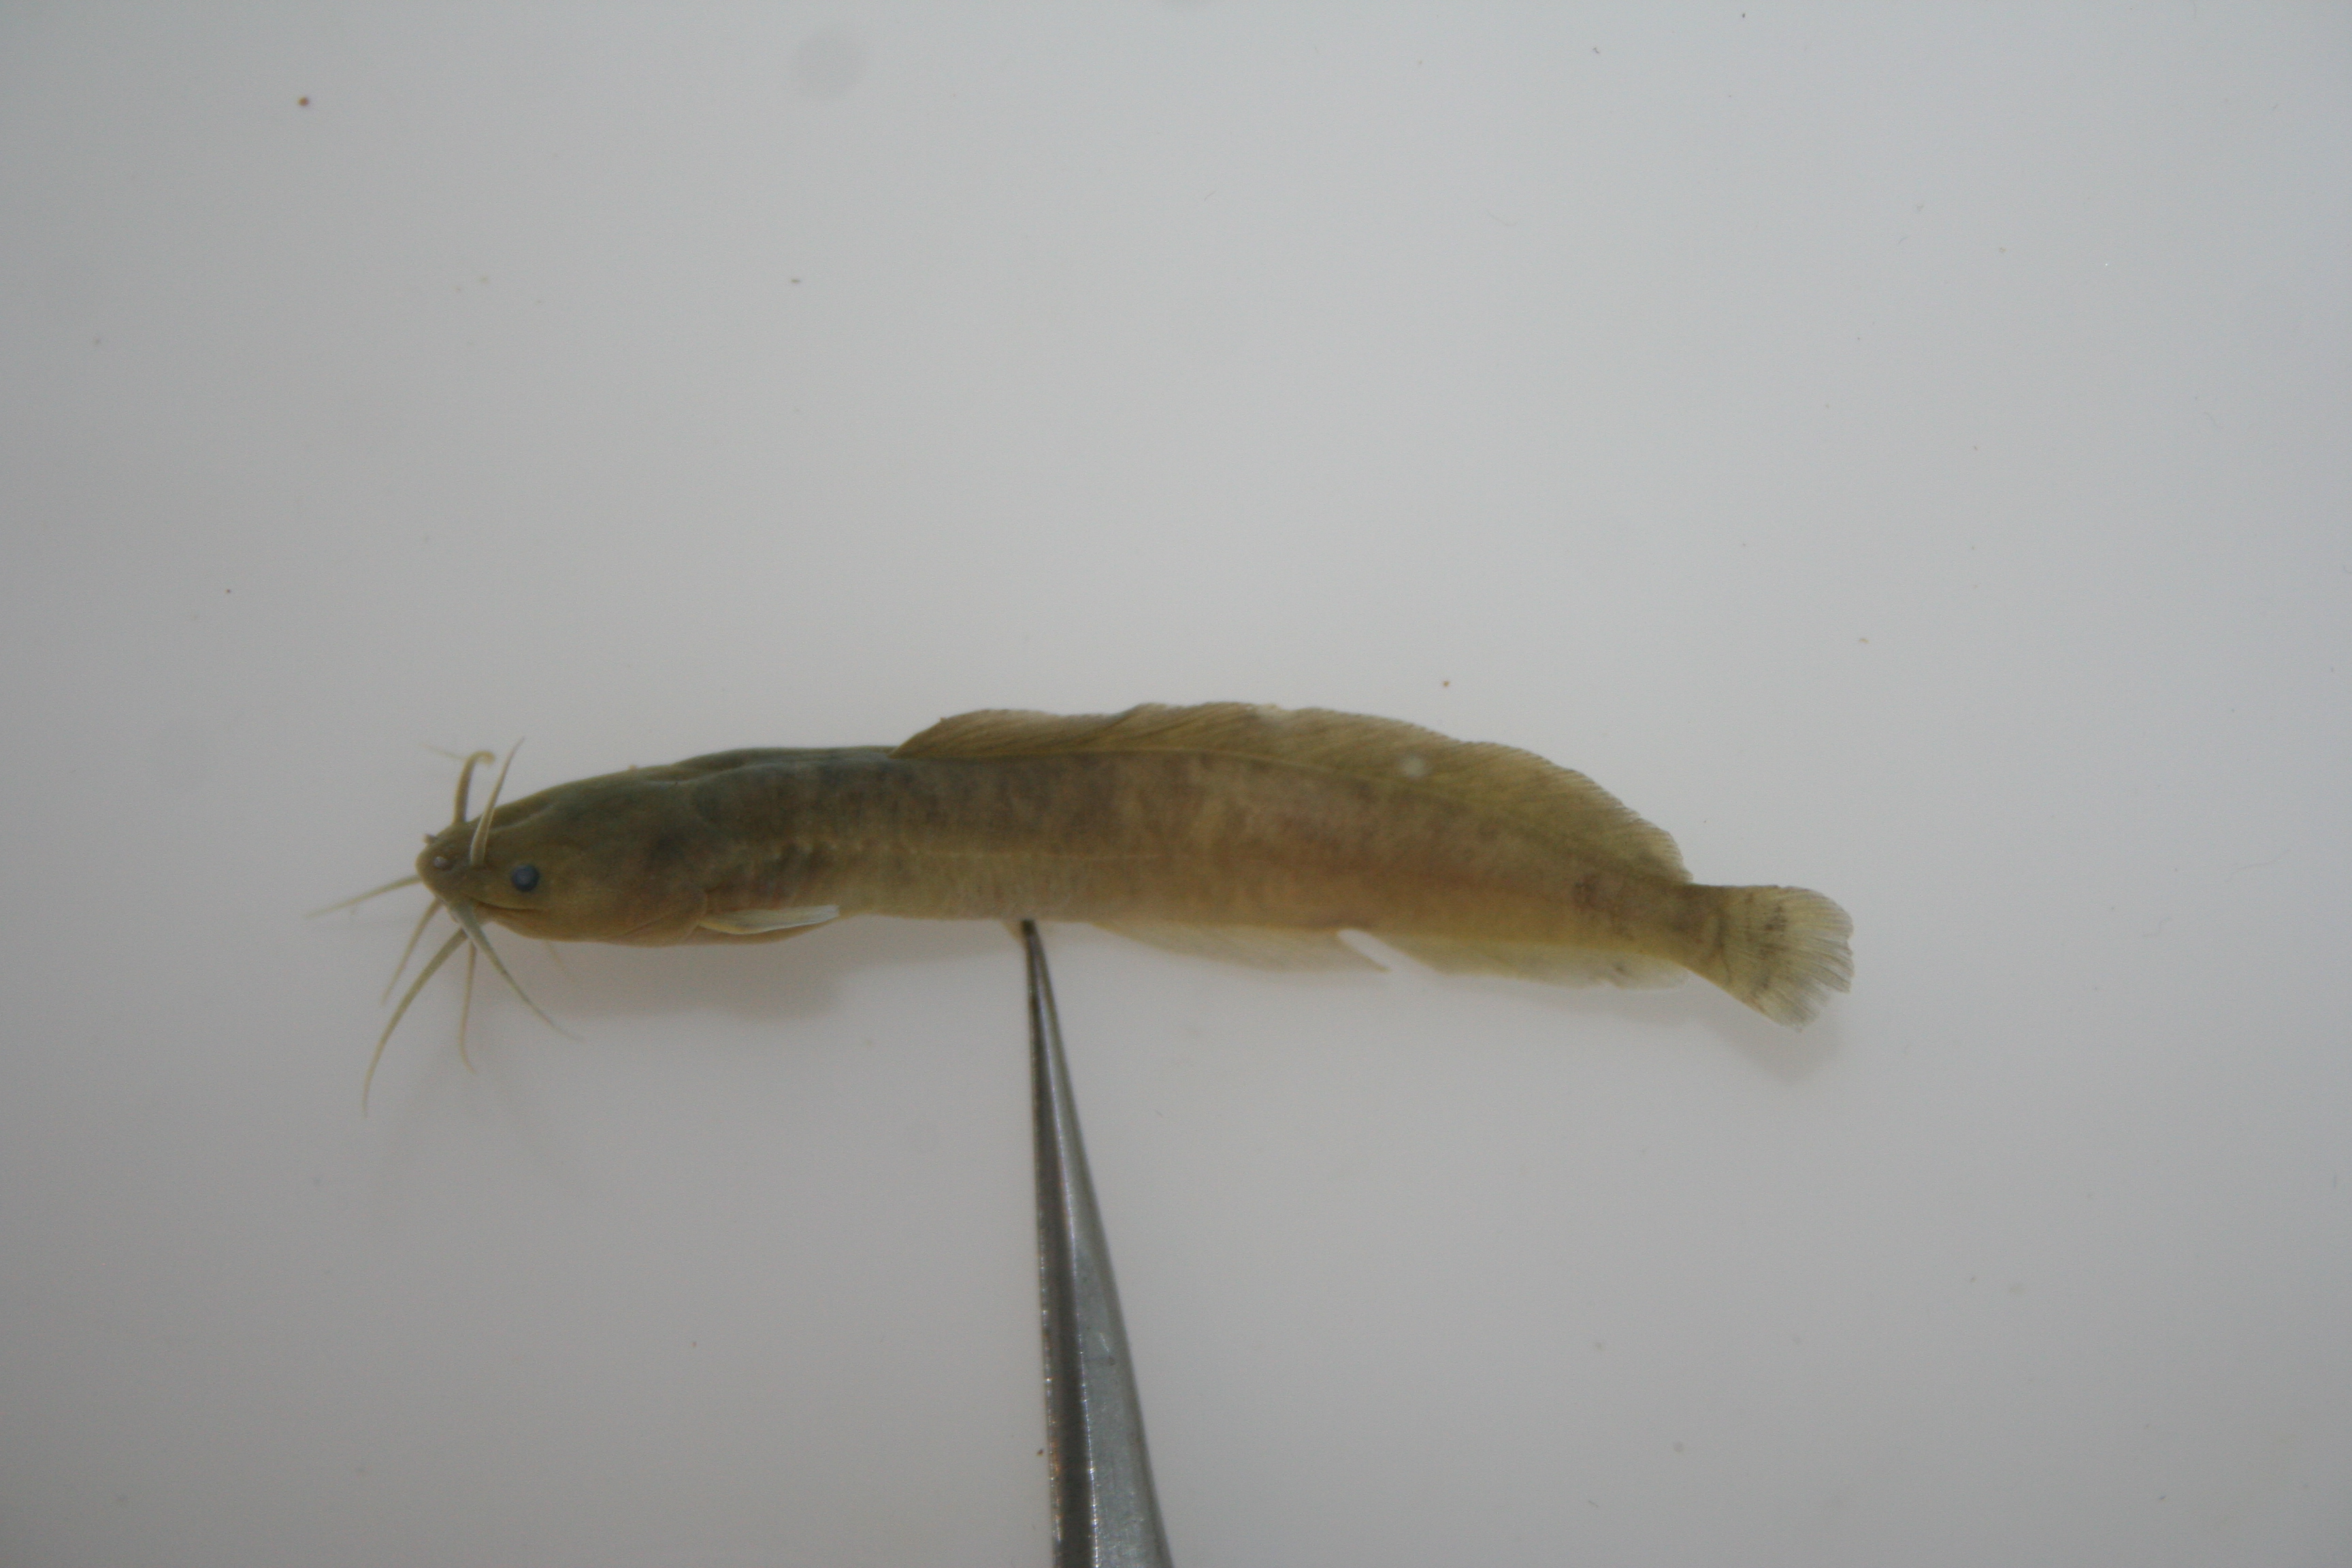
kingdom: Animalia
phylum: Chordata
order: Siluriformes
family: Clariidae
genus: Clarias
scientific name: Clarias
